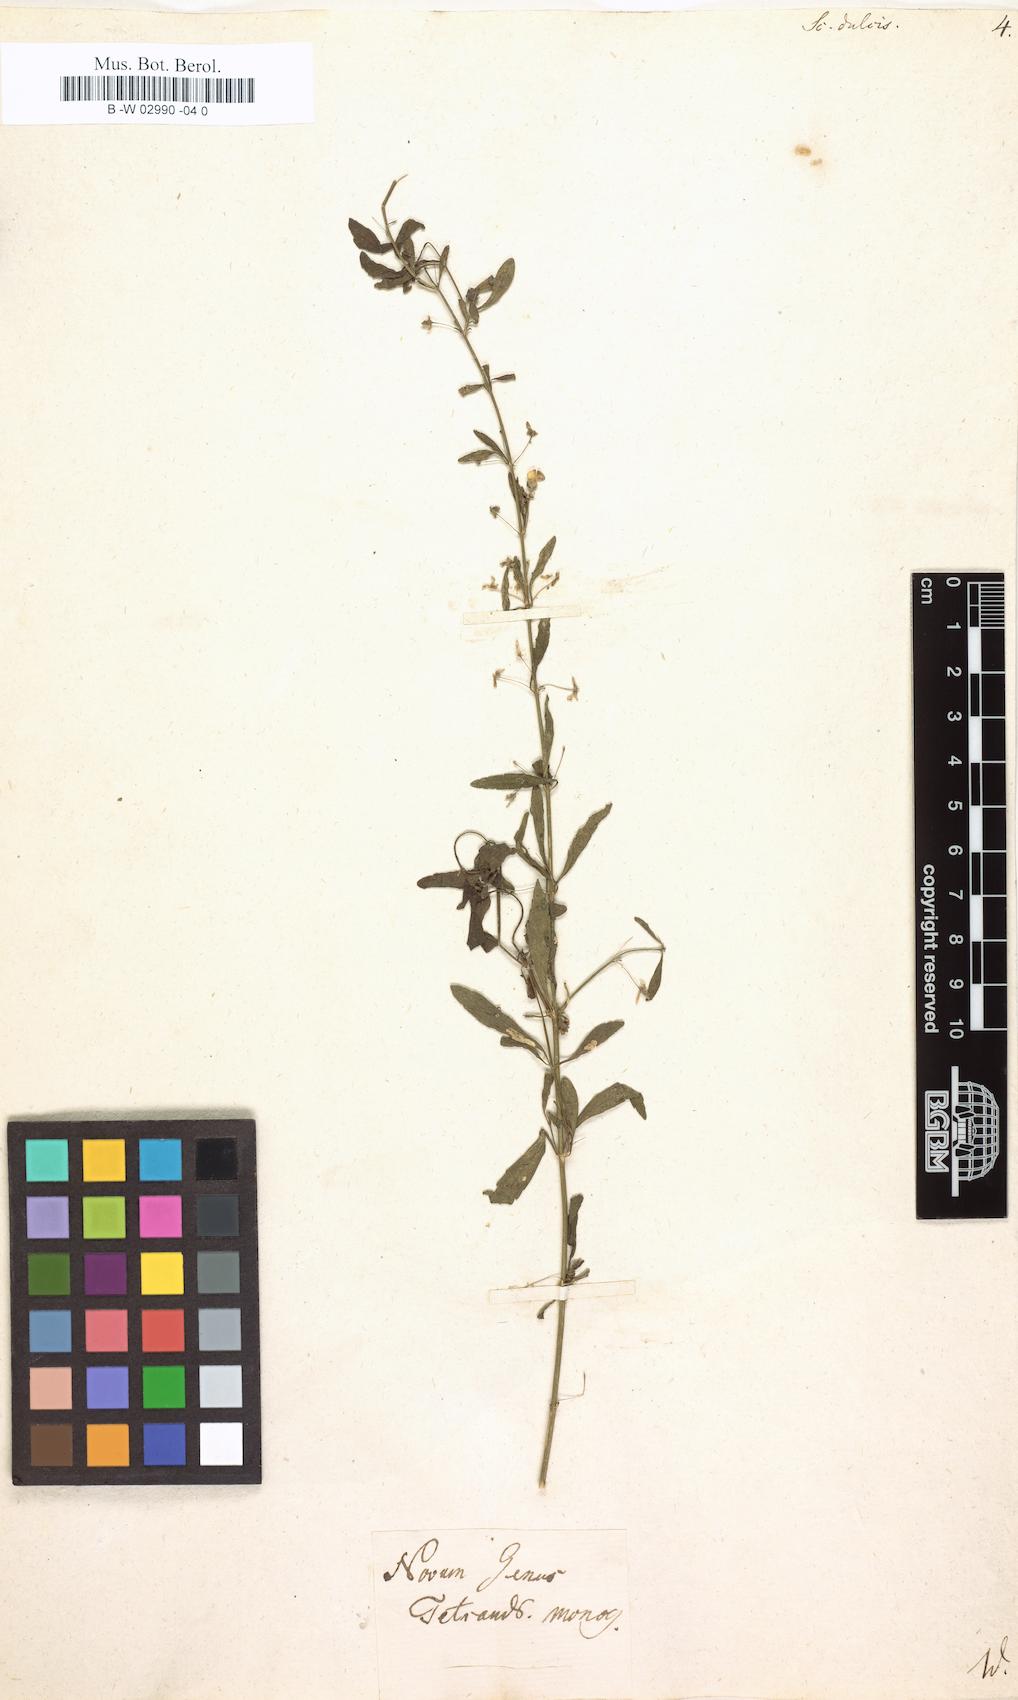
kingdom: Plantae
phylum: Tracheophyta
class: Magnoliopsida
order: Lamiales
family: Plantaginaceae
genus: Scoparia
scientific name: Scoparia dulcis
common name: Scoparia-weed
